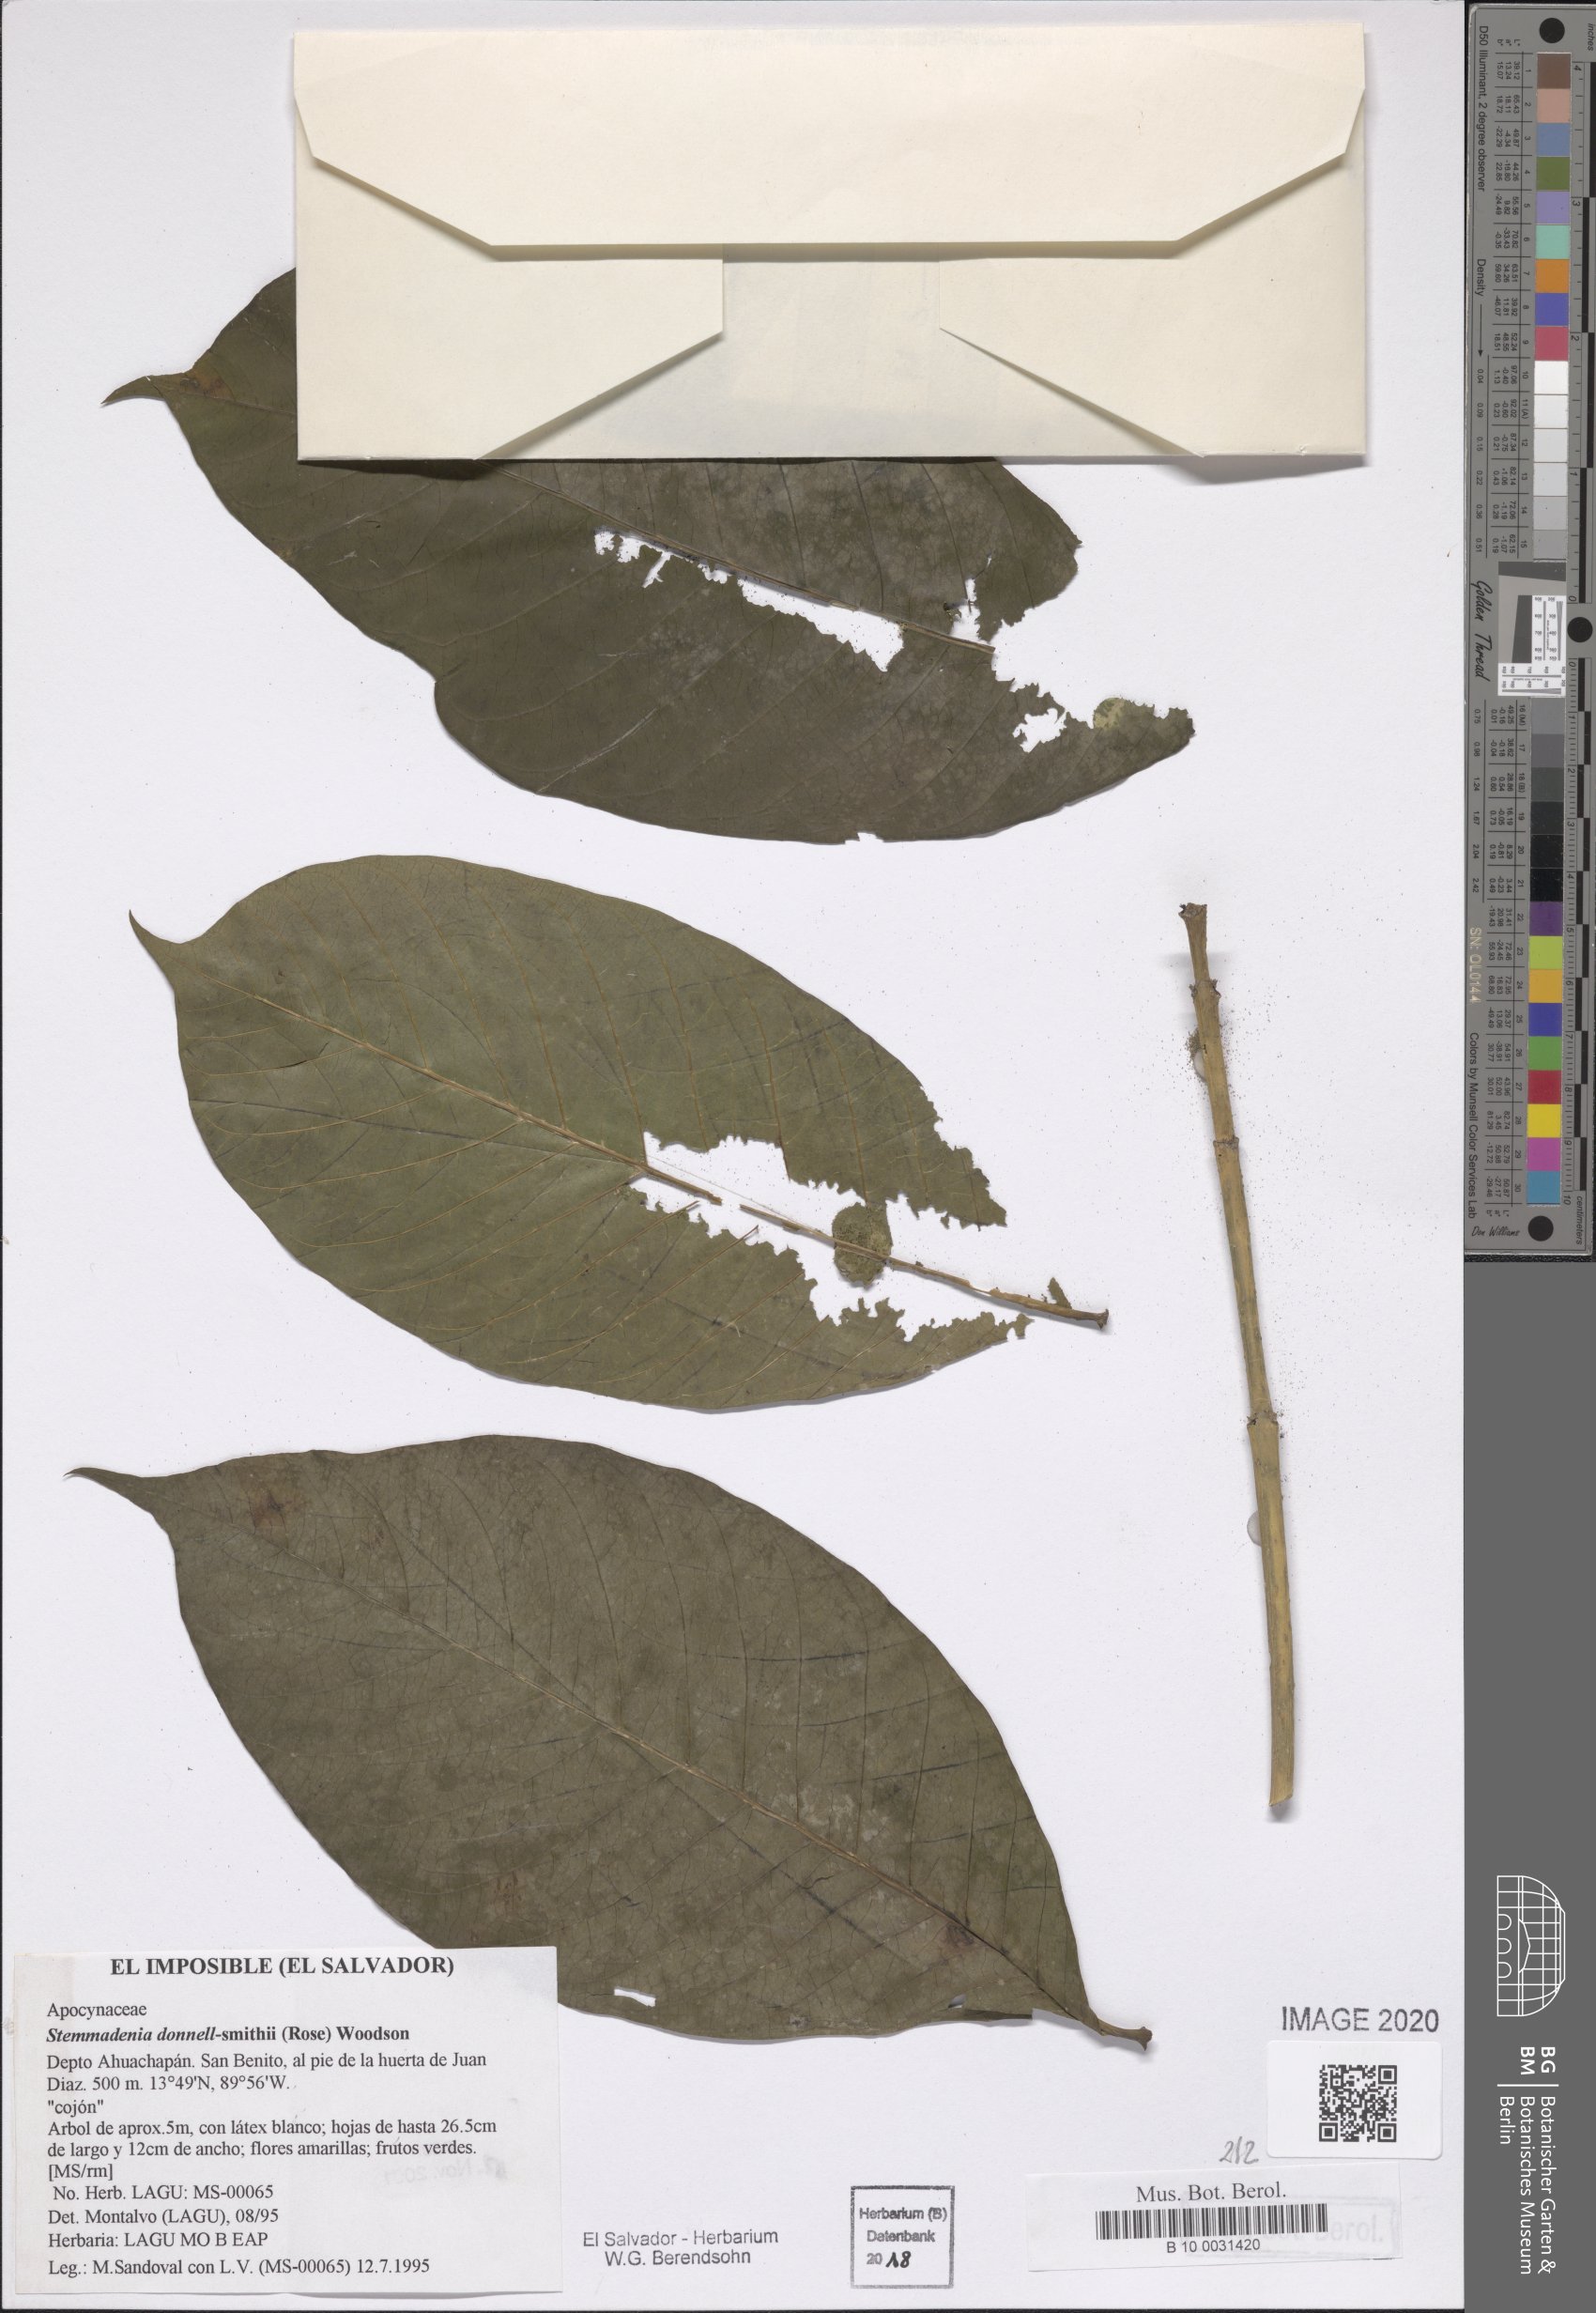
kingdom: Plantae
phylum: Tracheophyta
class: Magnoliopsida
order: Gentianales
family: Apocynaceae
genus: Tabernaemontana
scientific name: Tabernaemontana donnell-smithii
